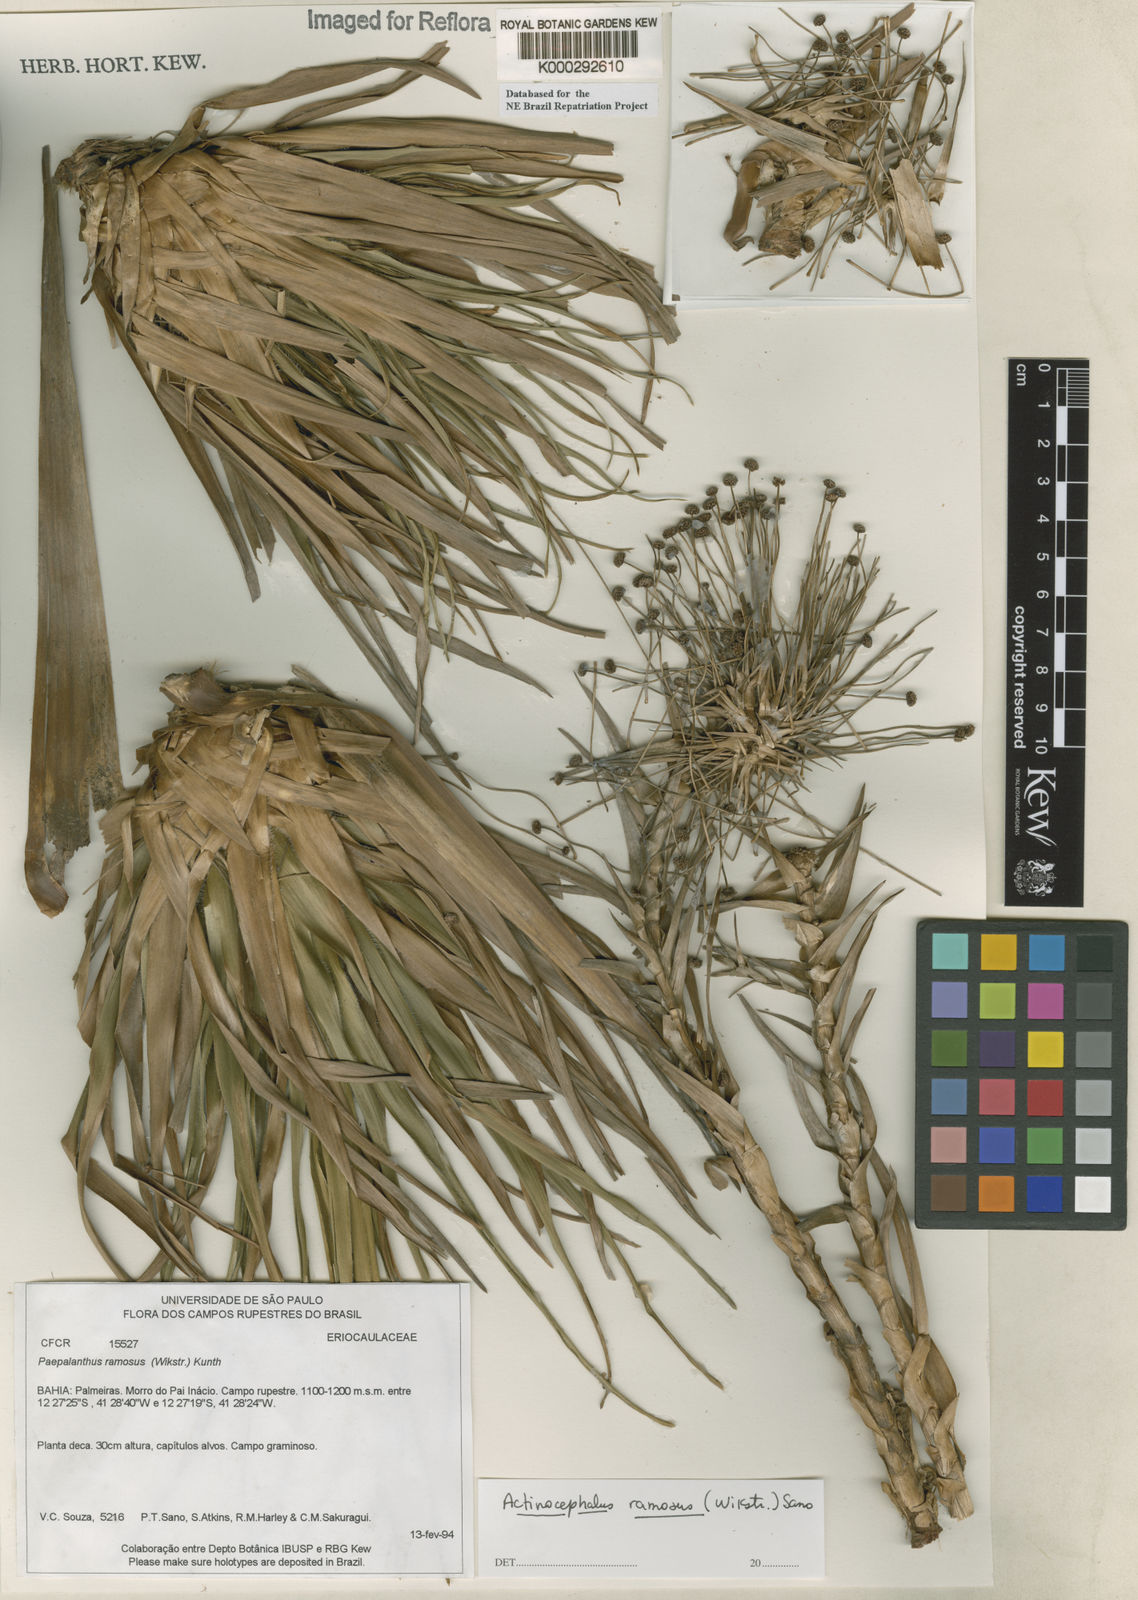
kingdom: Plantae
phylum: Tracheophyta
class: Liliopsida
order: Poales
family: Eriocaulaceae
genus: Paepalanthus
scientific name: Paepalanthus ramosus
